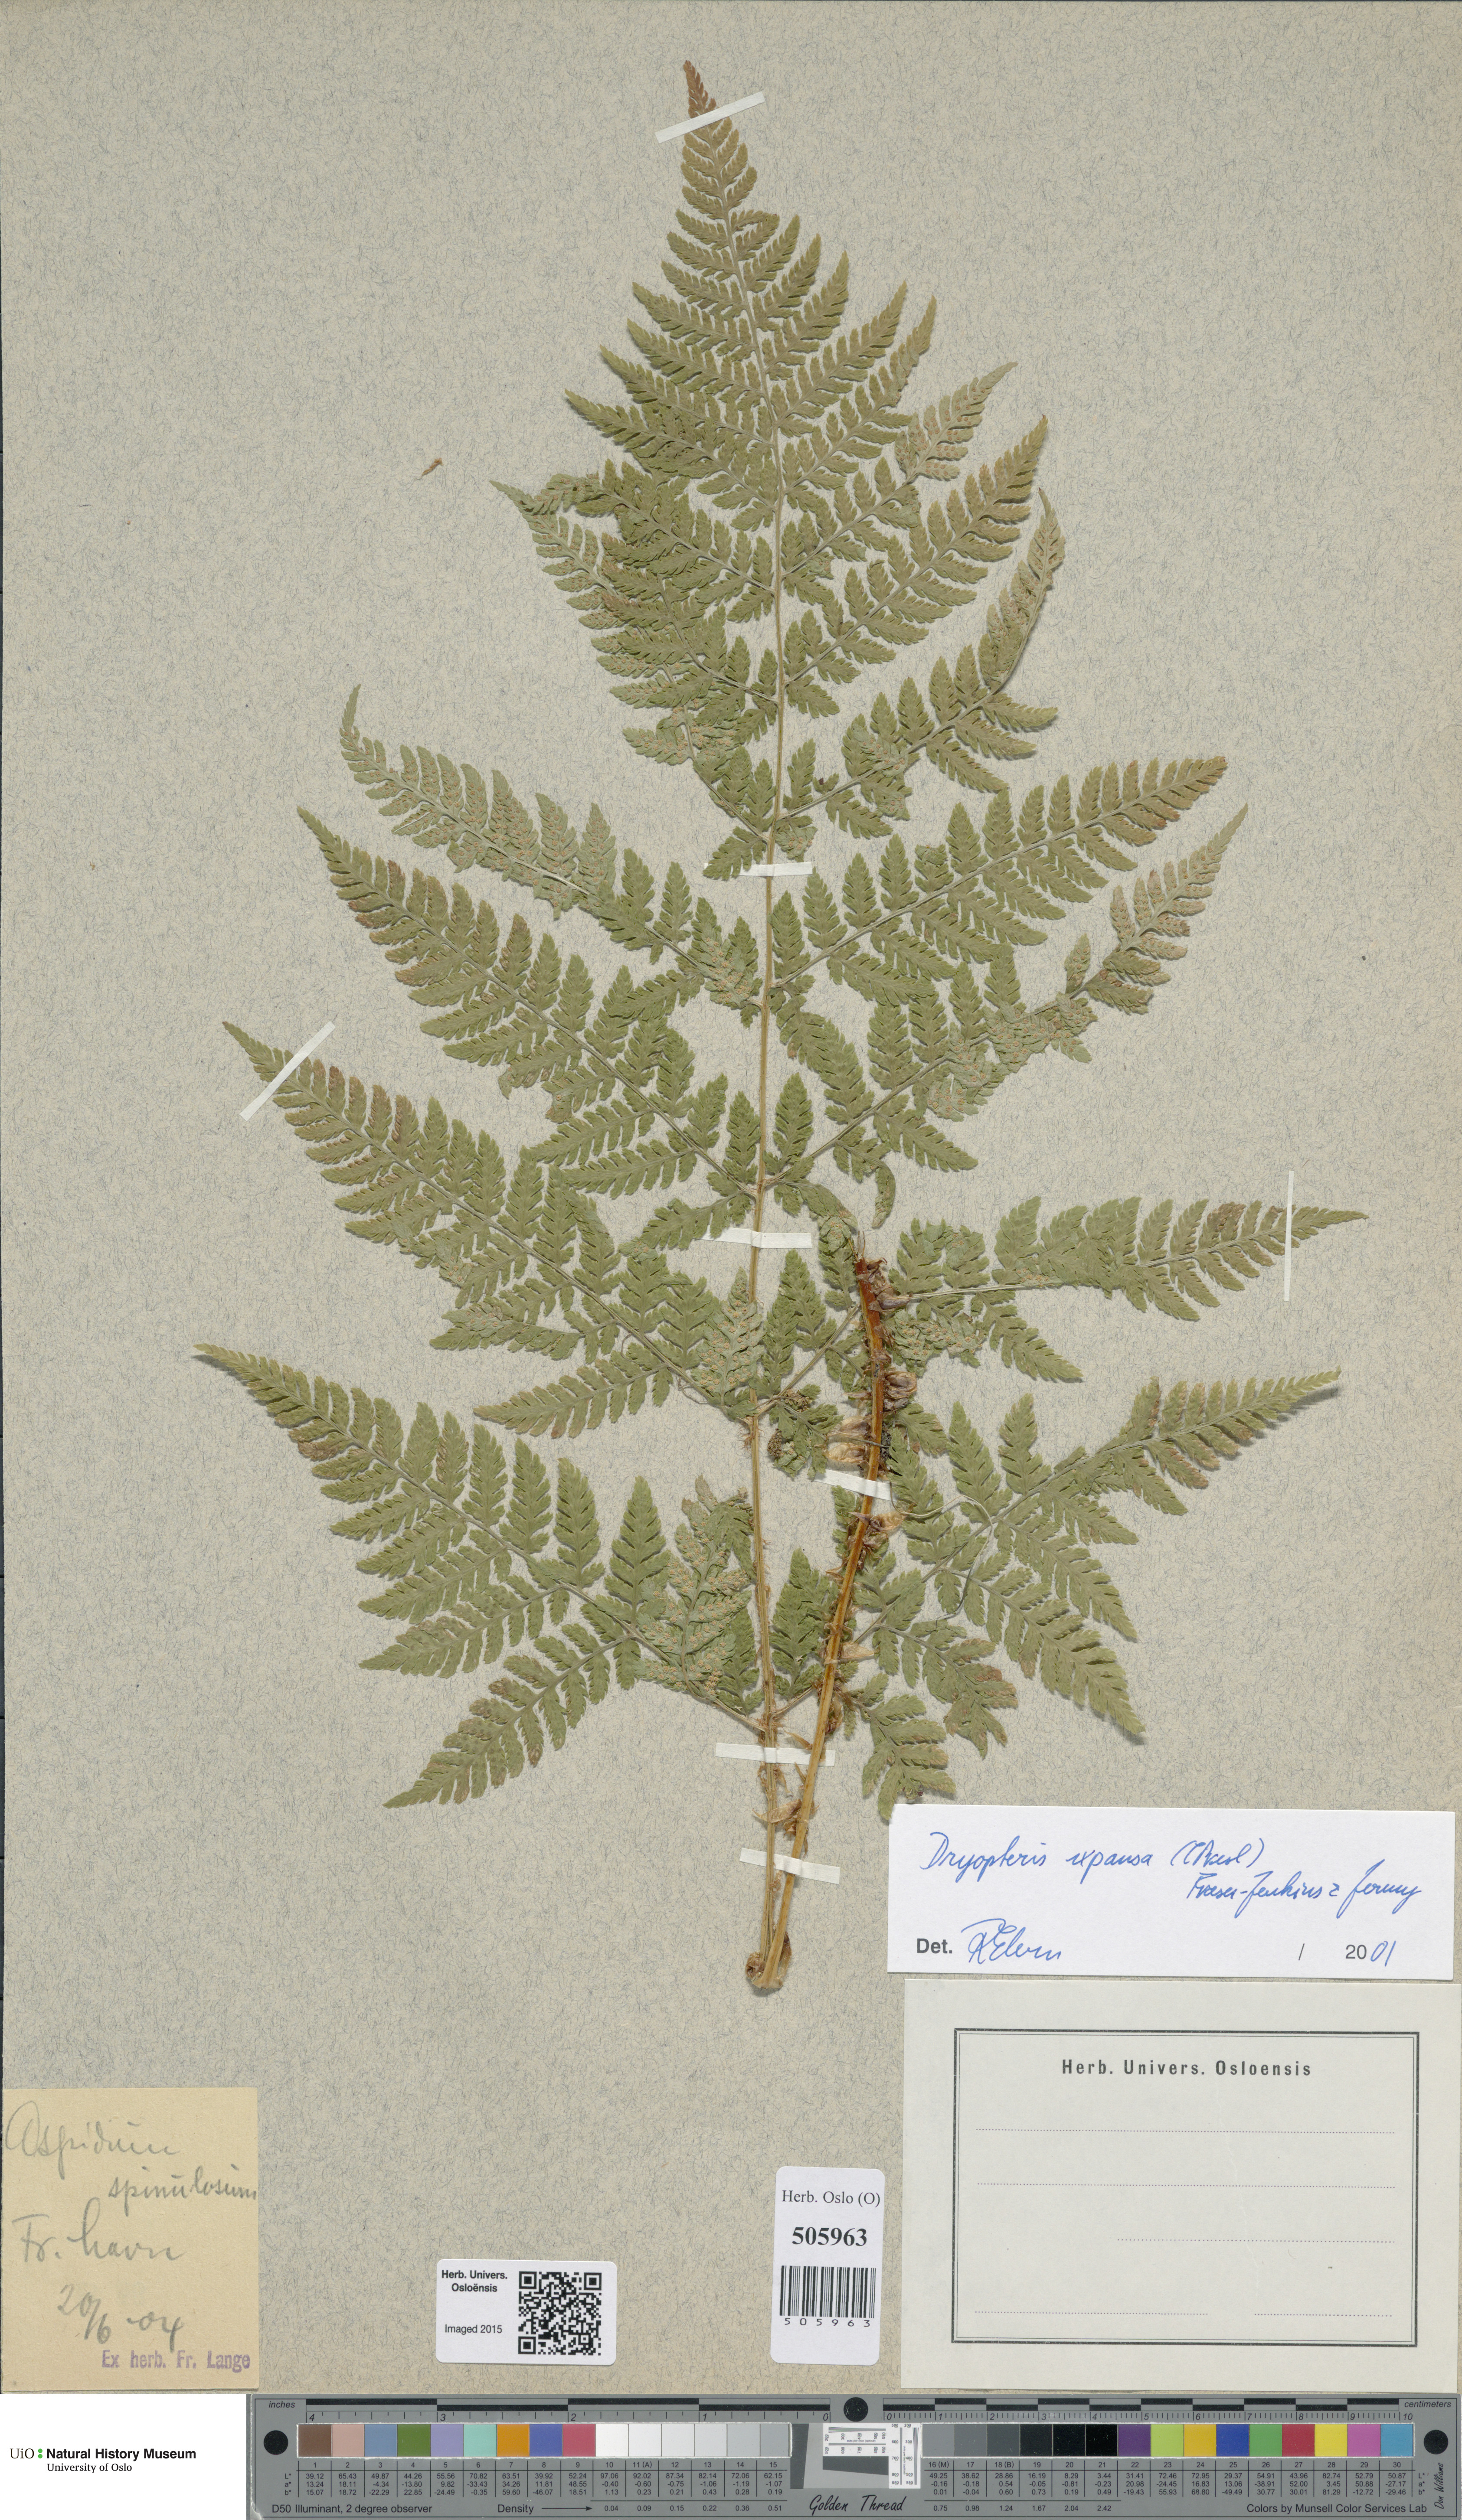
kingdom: Plantae
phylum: Tracheophyta
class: Polypodiopsida
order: Polypodiales
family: Dryopteridaceae
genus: Dryopteris
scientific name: Dryopteris expansa
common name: Northern buckler fern
